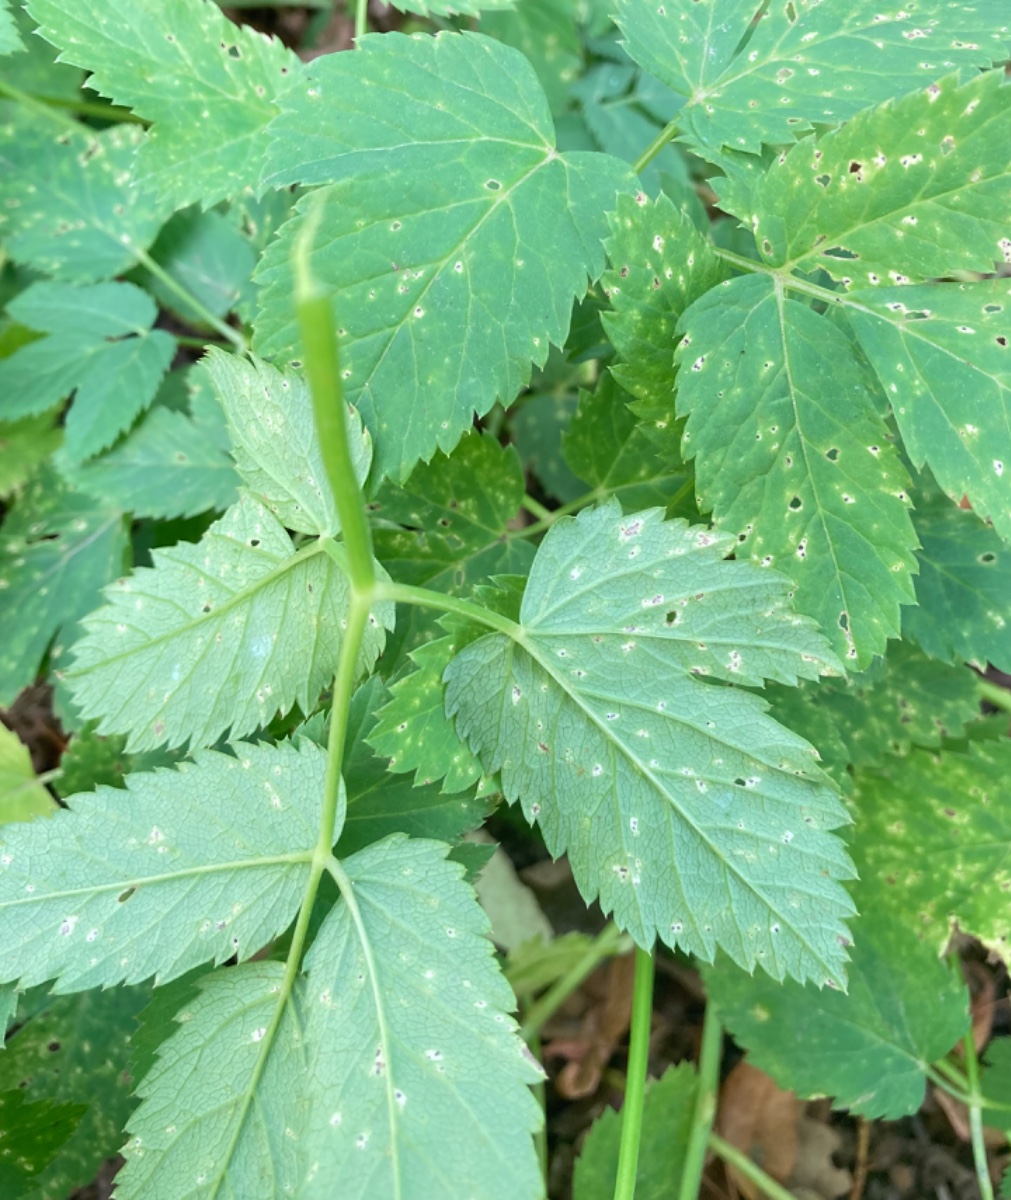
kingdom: Fungi
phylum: Ascomycota
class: Dothideomycetes
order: Mycosphaerellales
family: Mycosphaerellaceae
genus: Mycosphaerella
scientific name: Mycosphaerella podagrariae
